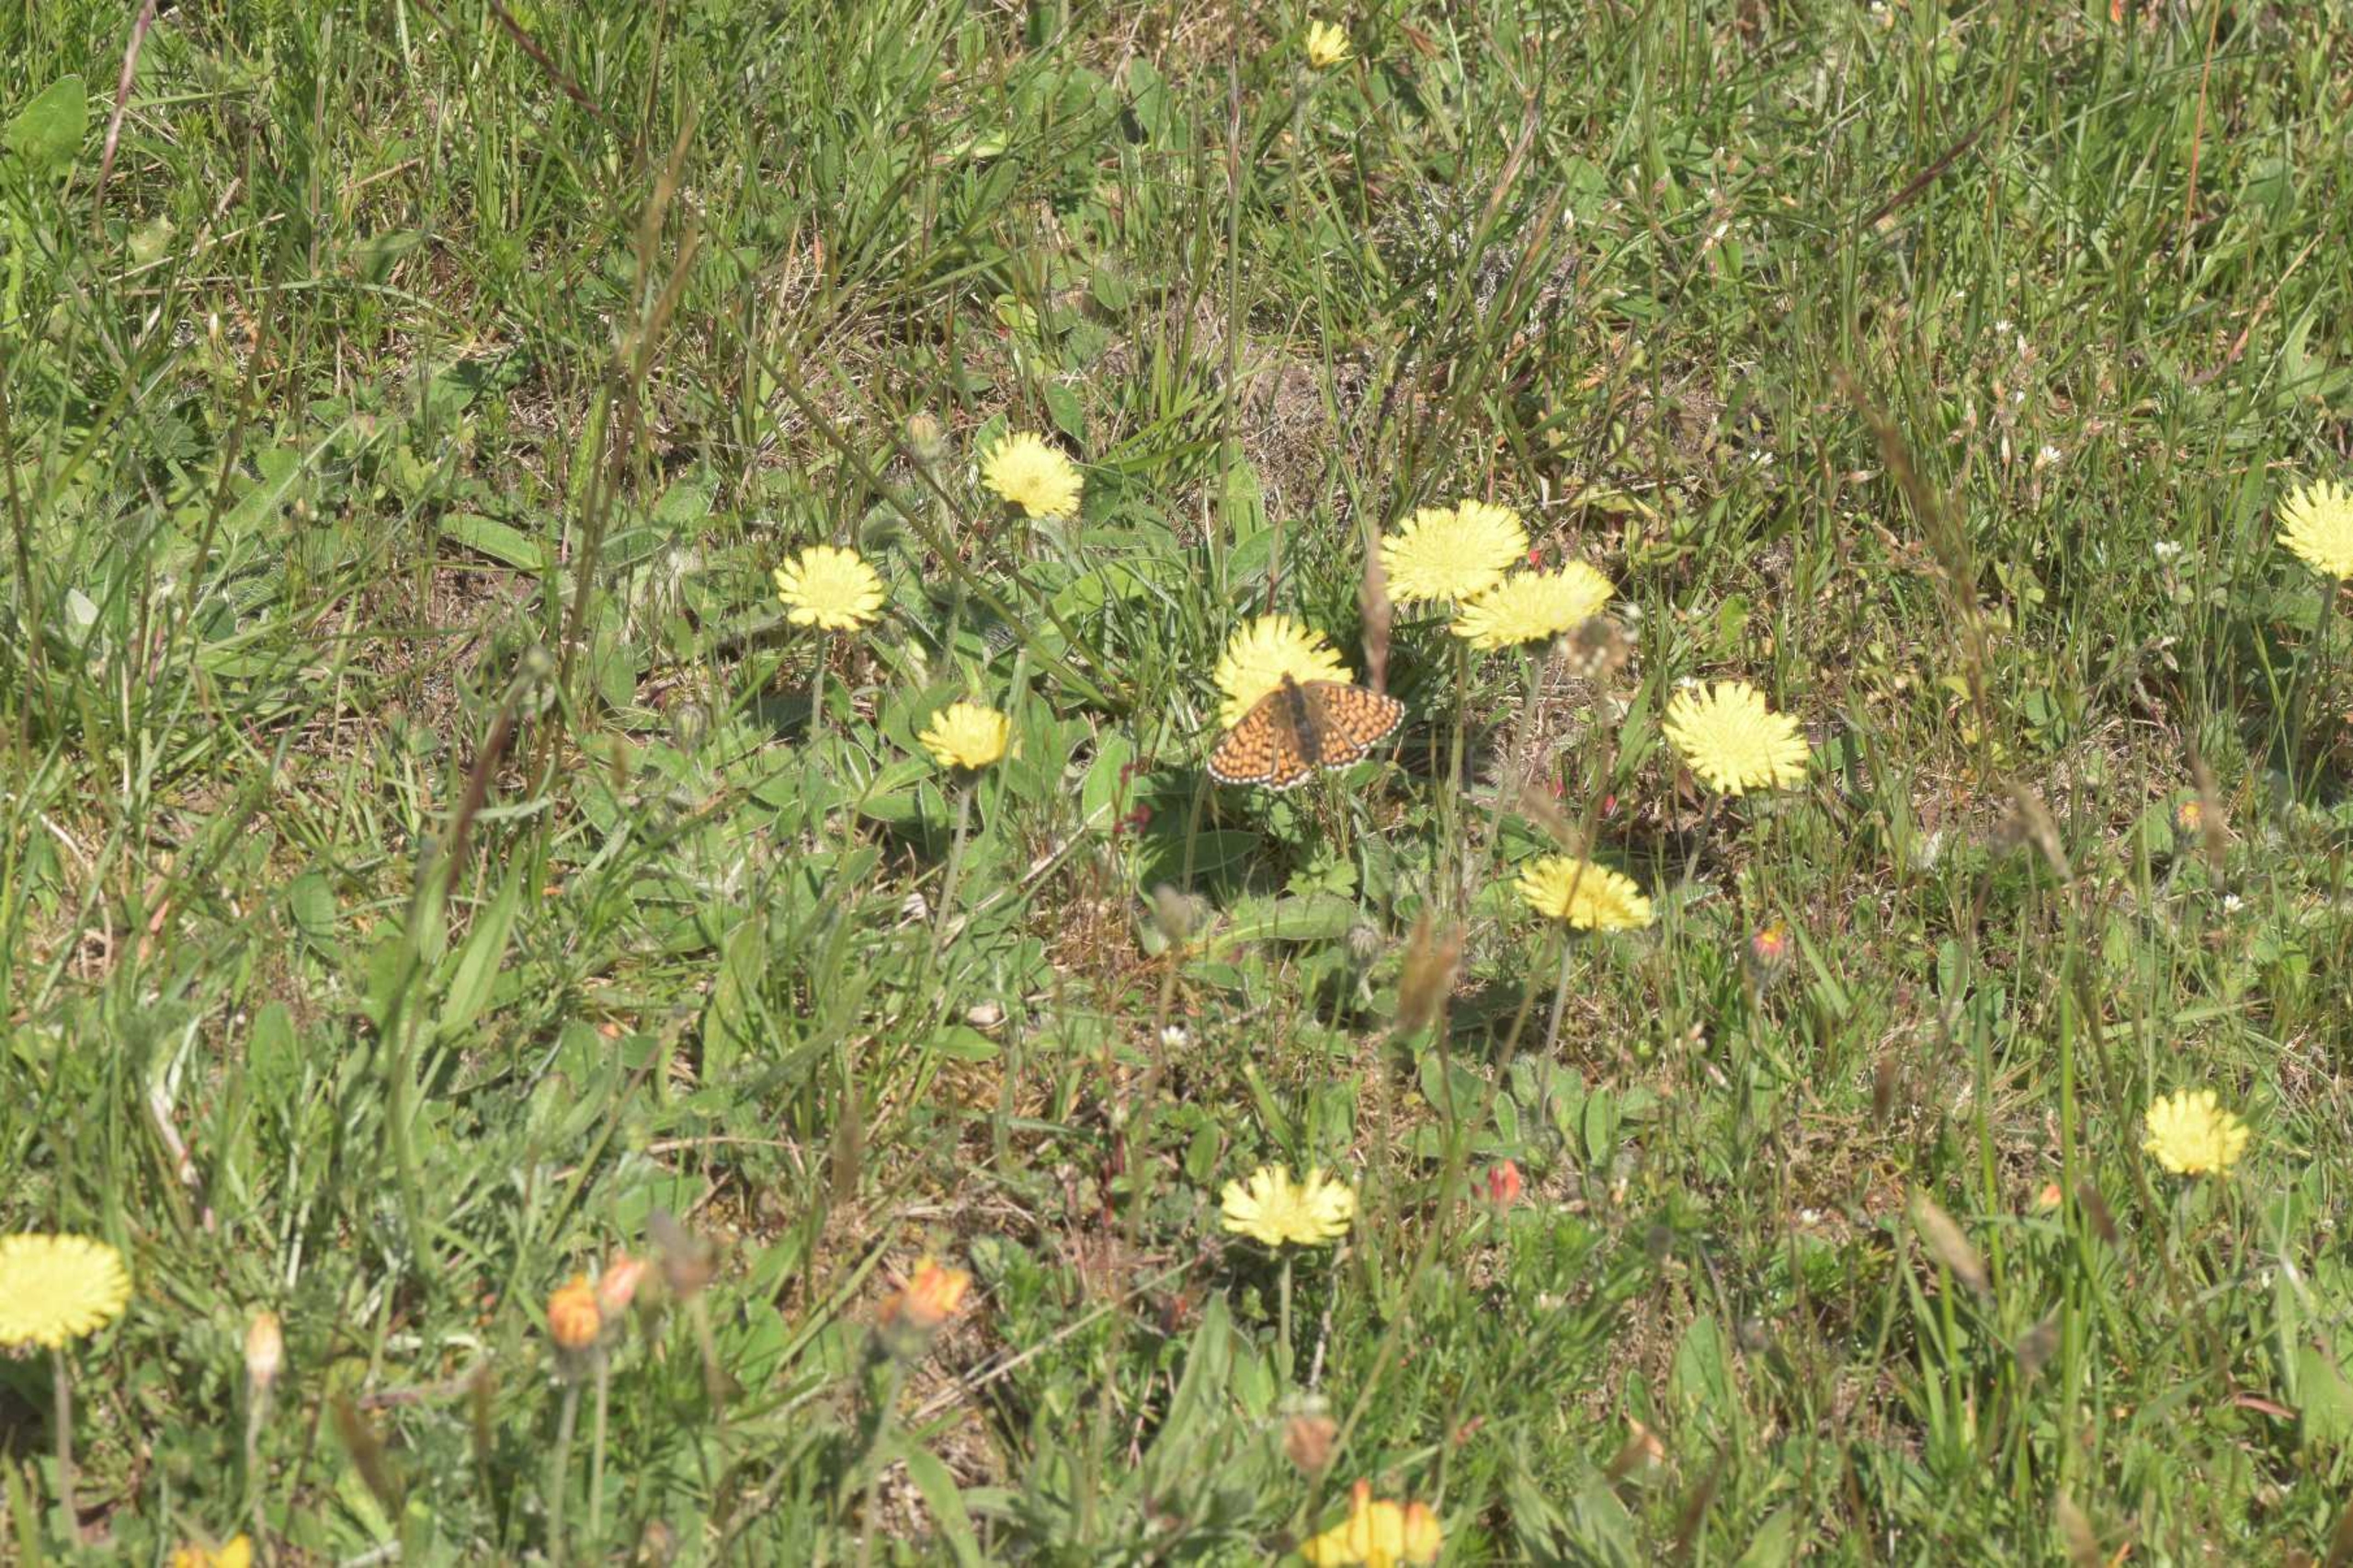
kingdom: Animalia
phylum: Arthropoda
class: Insecta
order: Lepidoptera
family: Nymphalidae
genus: Melitaea
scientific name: Melitaea cinxia
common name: Okkergul pletvinge
